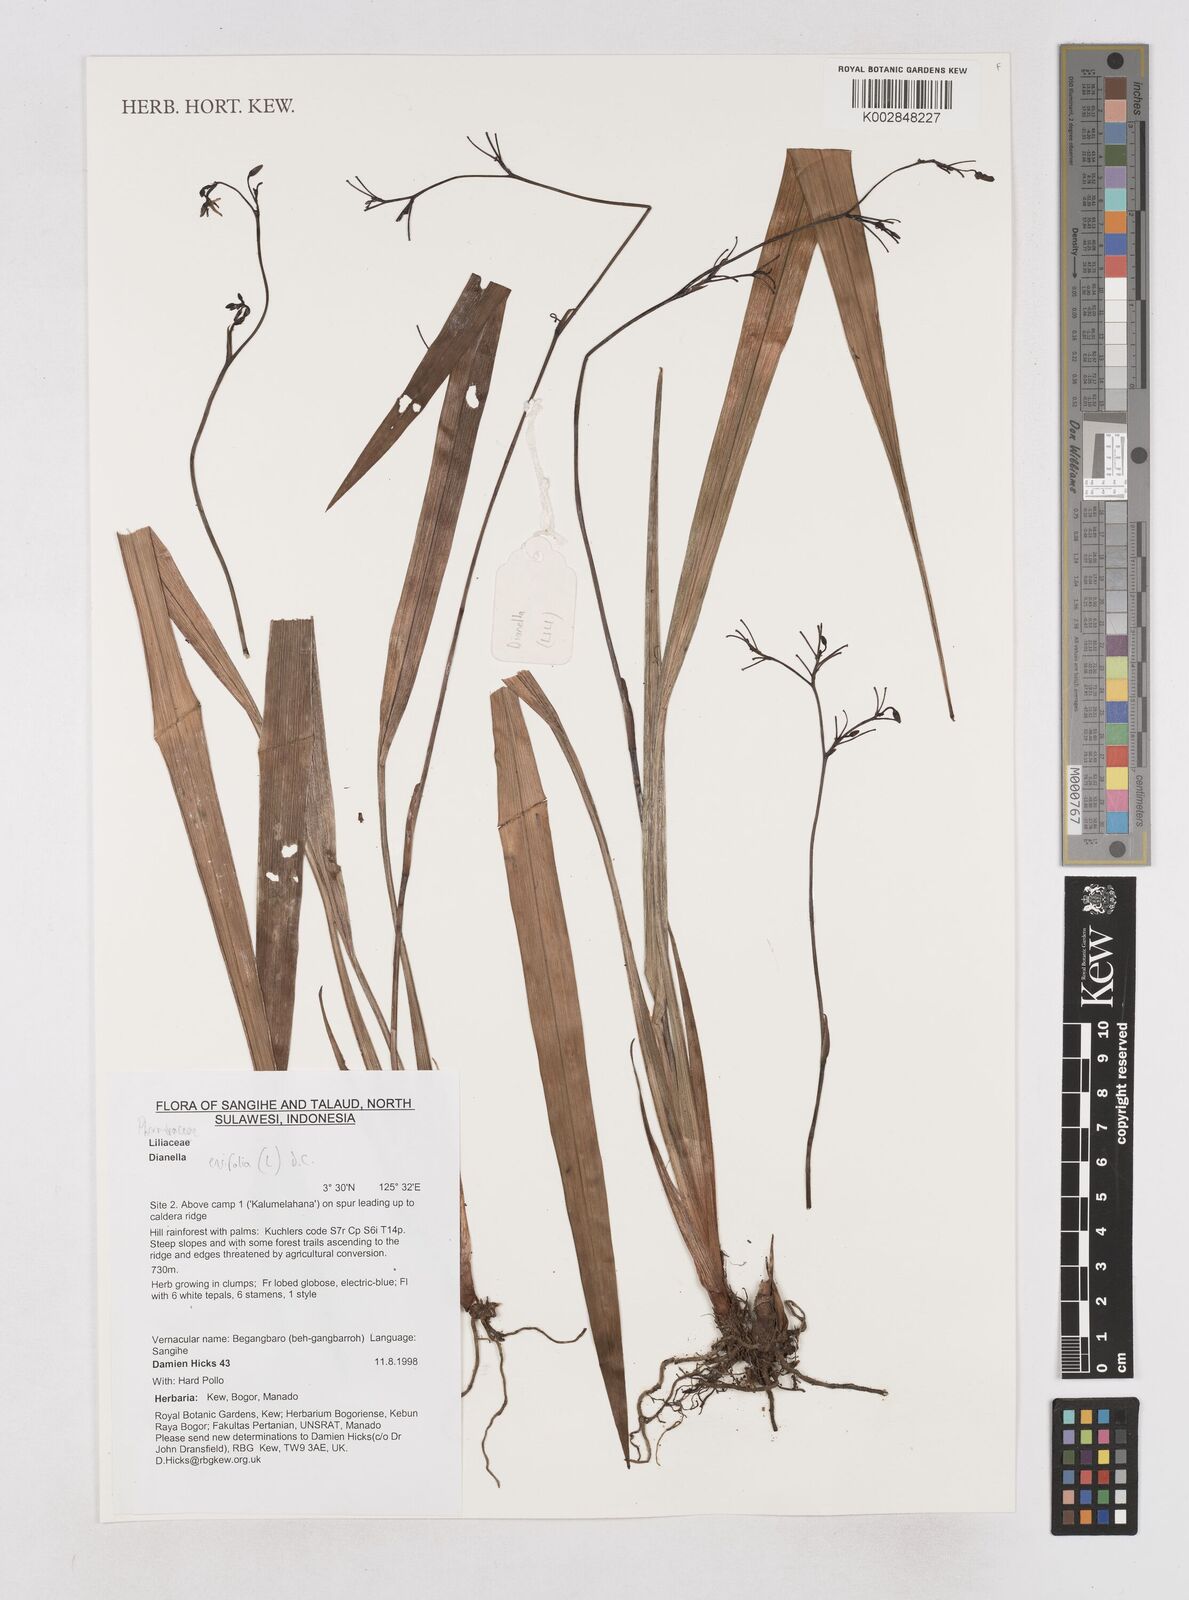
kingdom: Plantae
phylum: Tracheophyta
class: Liliopsida
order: Asparagales
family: Asphodelaceae
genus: Dianella
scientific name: Dianella ensifolia
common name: New zealand lilyplant
